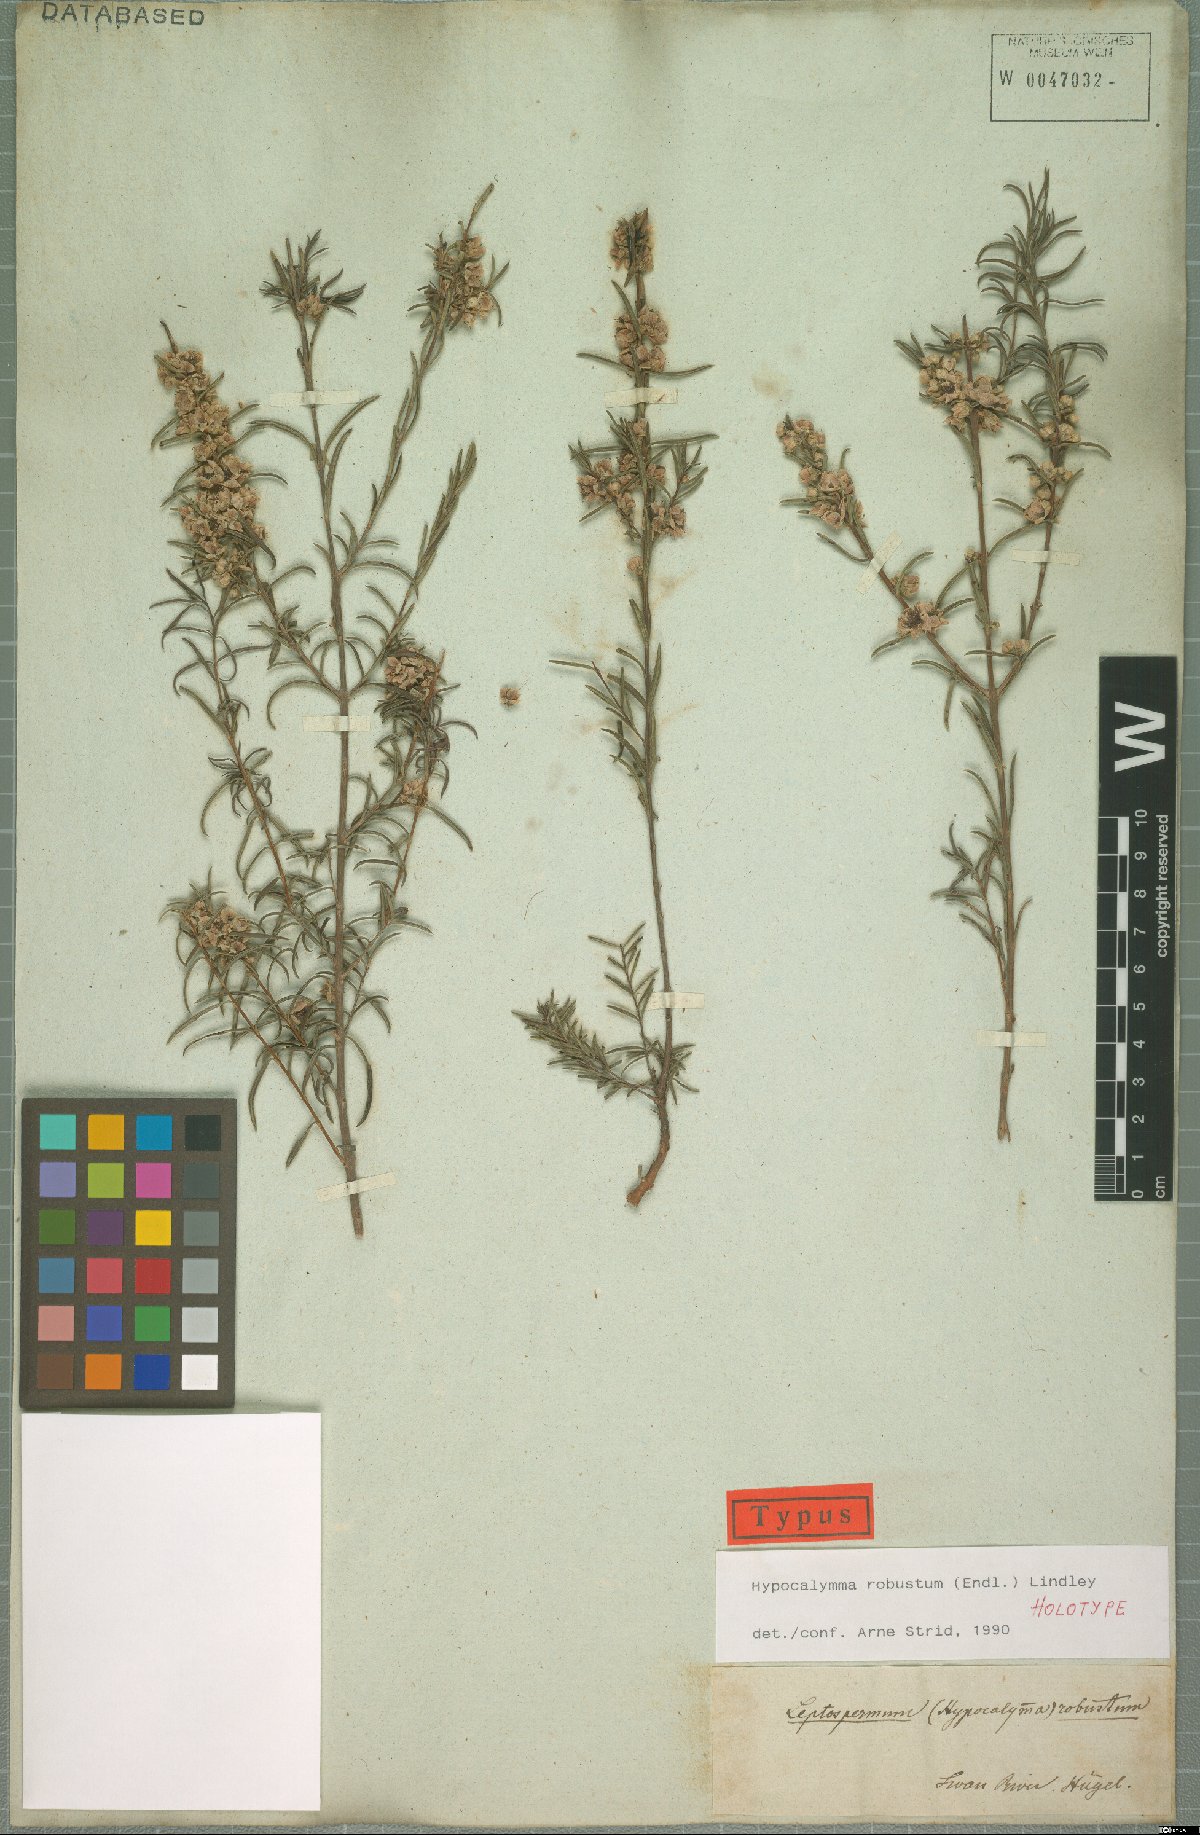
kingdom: Plantae
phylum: Tracheophyta
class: Magnoliopsida
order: Myrtales
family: Myrtaceae
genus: Hypocalymma
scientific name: Hypocalymma robustum
